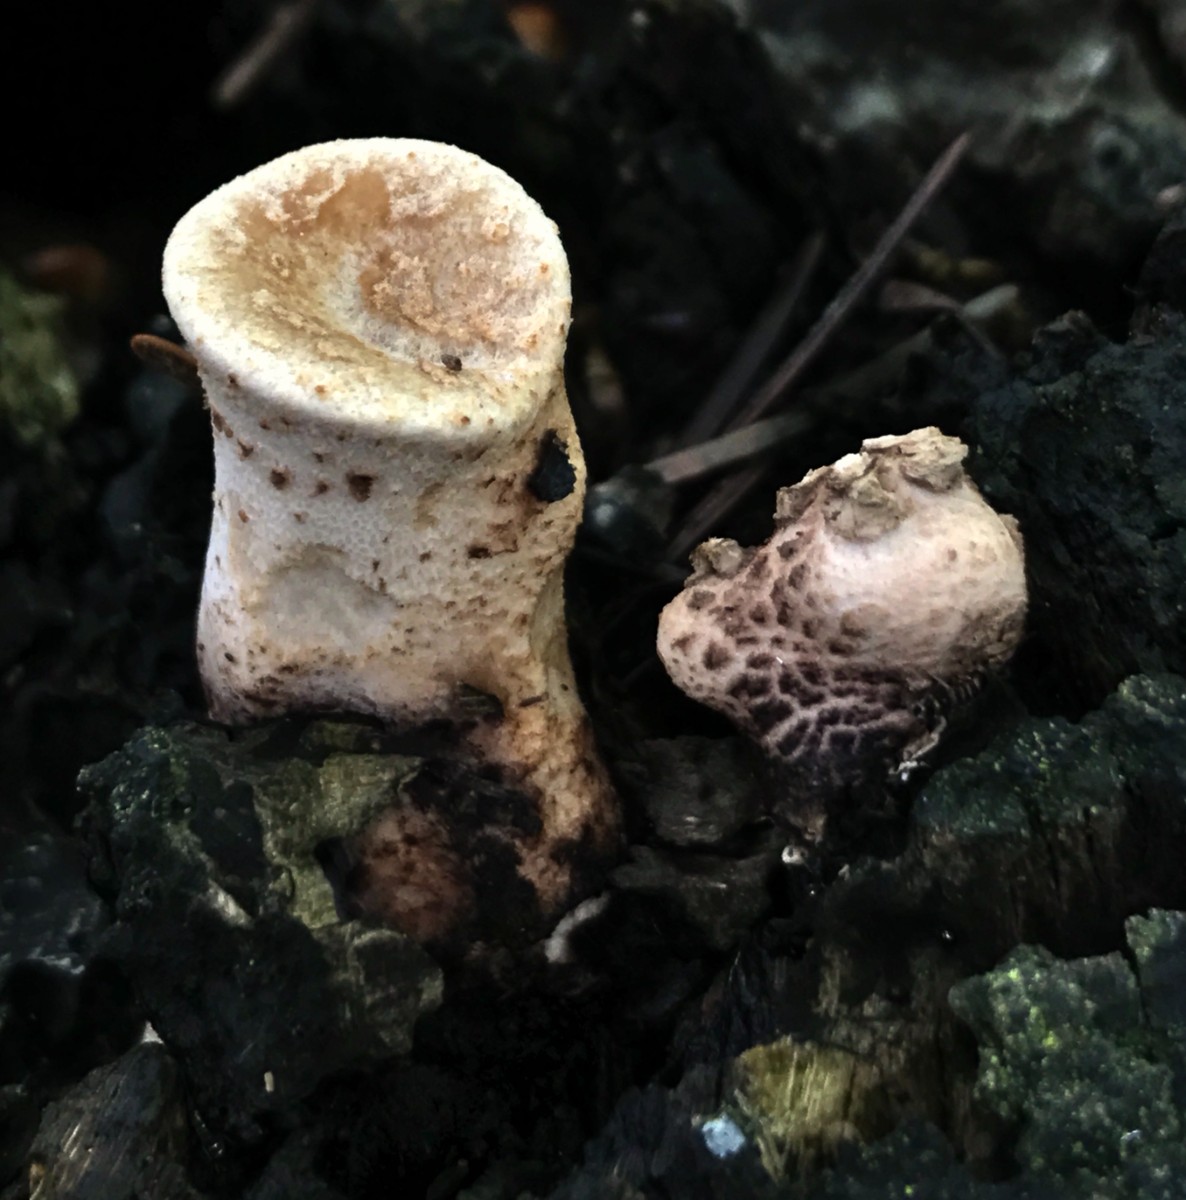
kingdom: Fungi
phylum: Basidiomycota
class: Agaricomycetes
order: Polyporales
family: Polyporaceae
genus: Cerioporus
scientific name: Cerioporus squamosus
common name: skællet stilkporesvamp
